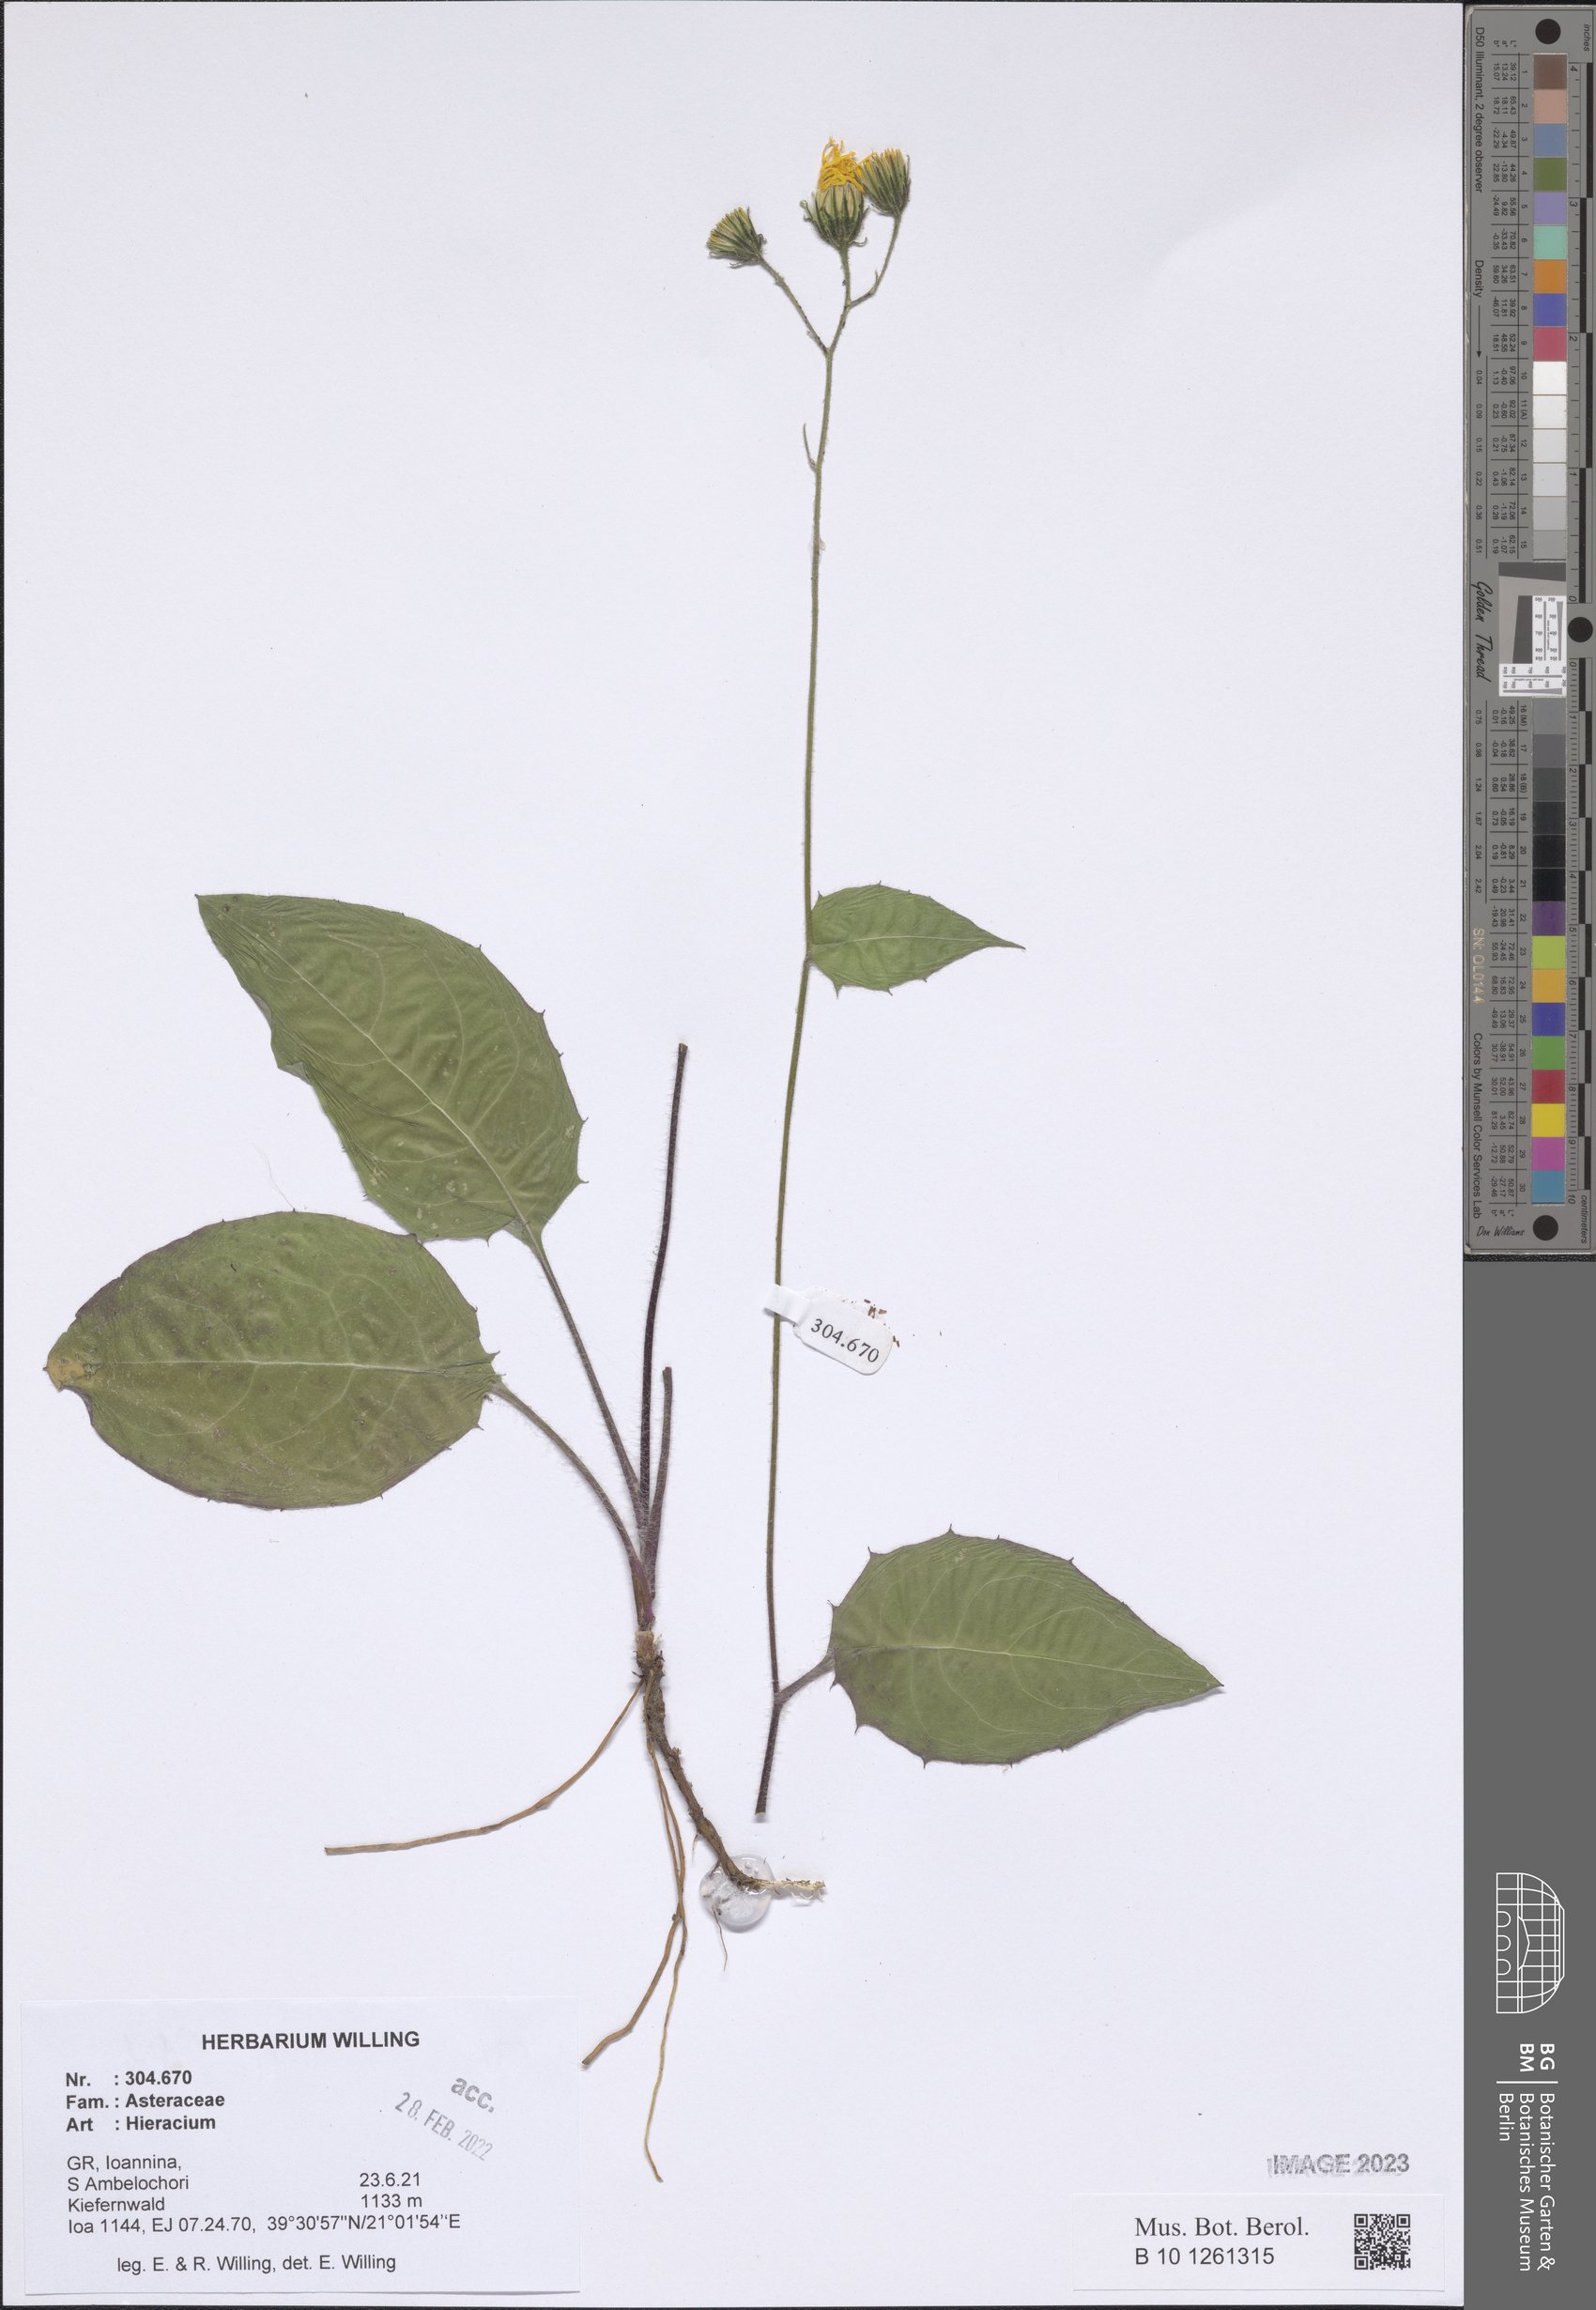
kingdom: Plantae
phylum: Tracheophyta
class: Magnoliopsida
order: Asterales
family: Asteraceae
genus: Hieracium
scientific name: Hieracium
